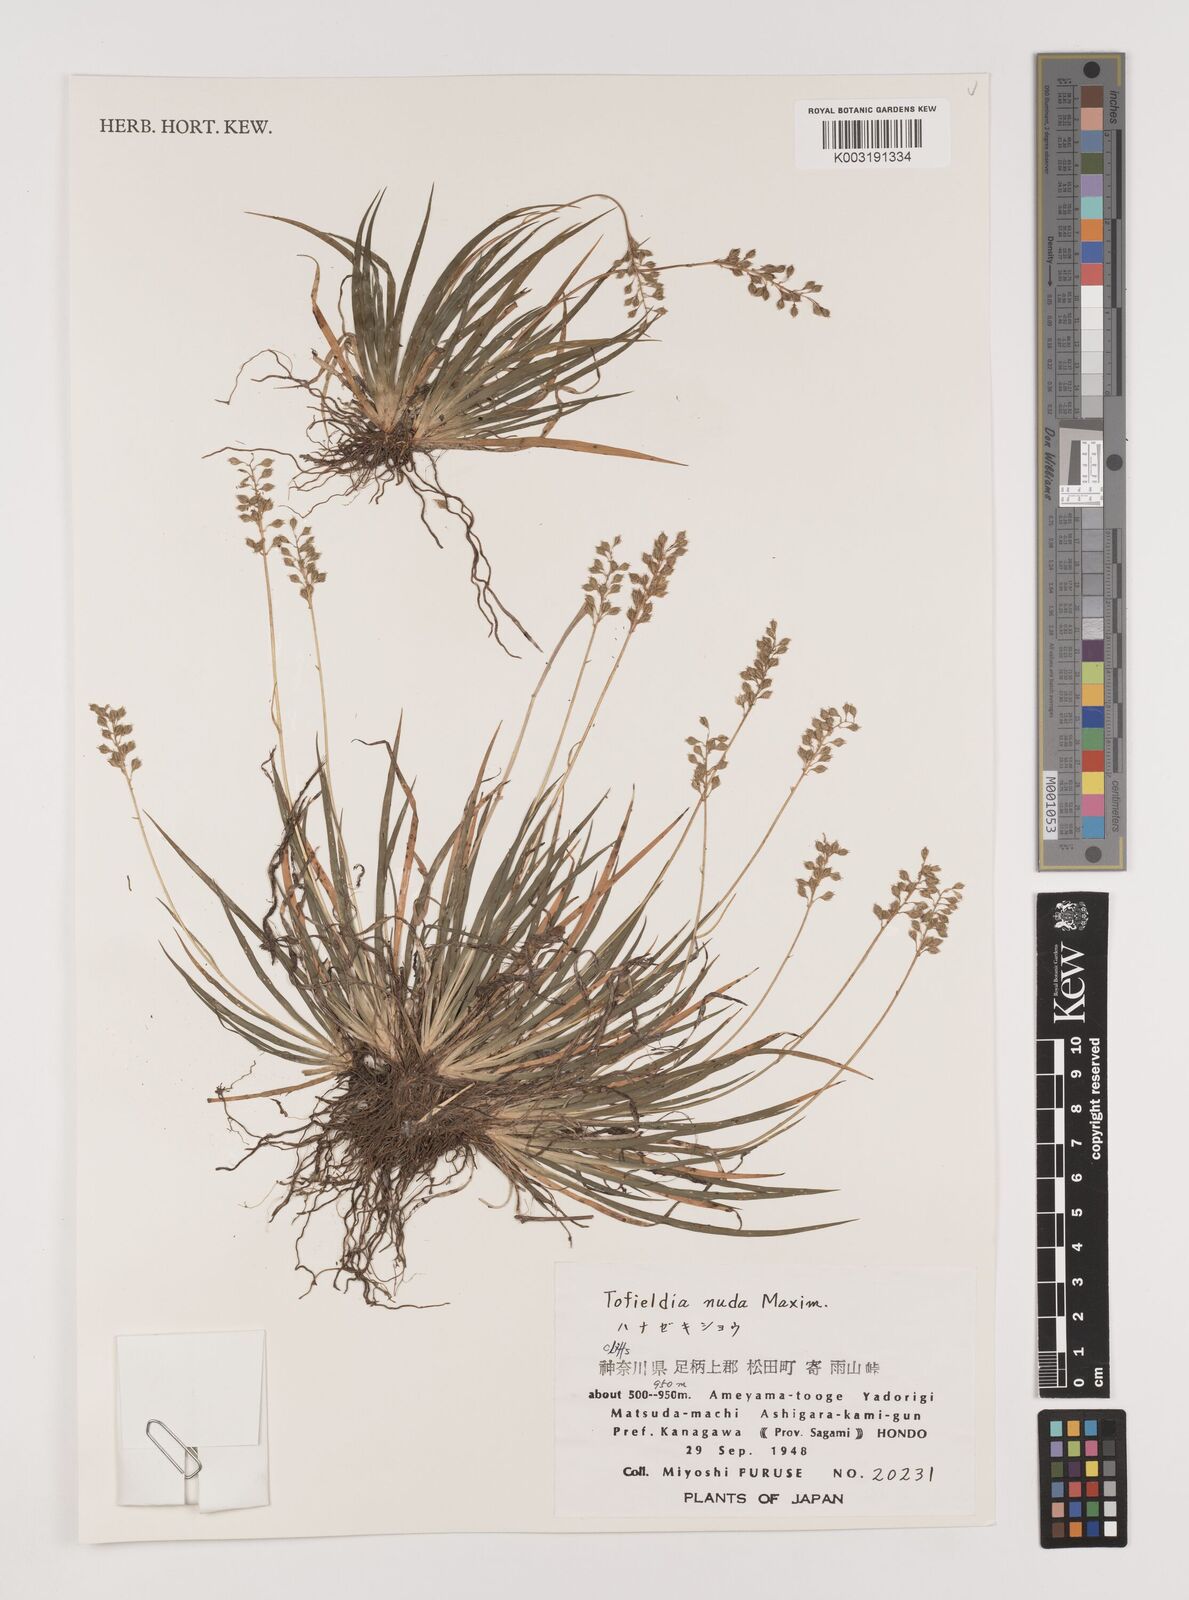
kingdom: Plantae
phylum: Tracheophyta
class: Liliopsida
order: Alismatales
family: Tofieldiaceae
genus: Tofieldia
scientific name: Tofieldia yoshiiana
